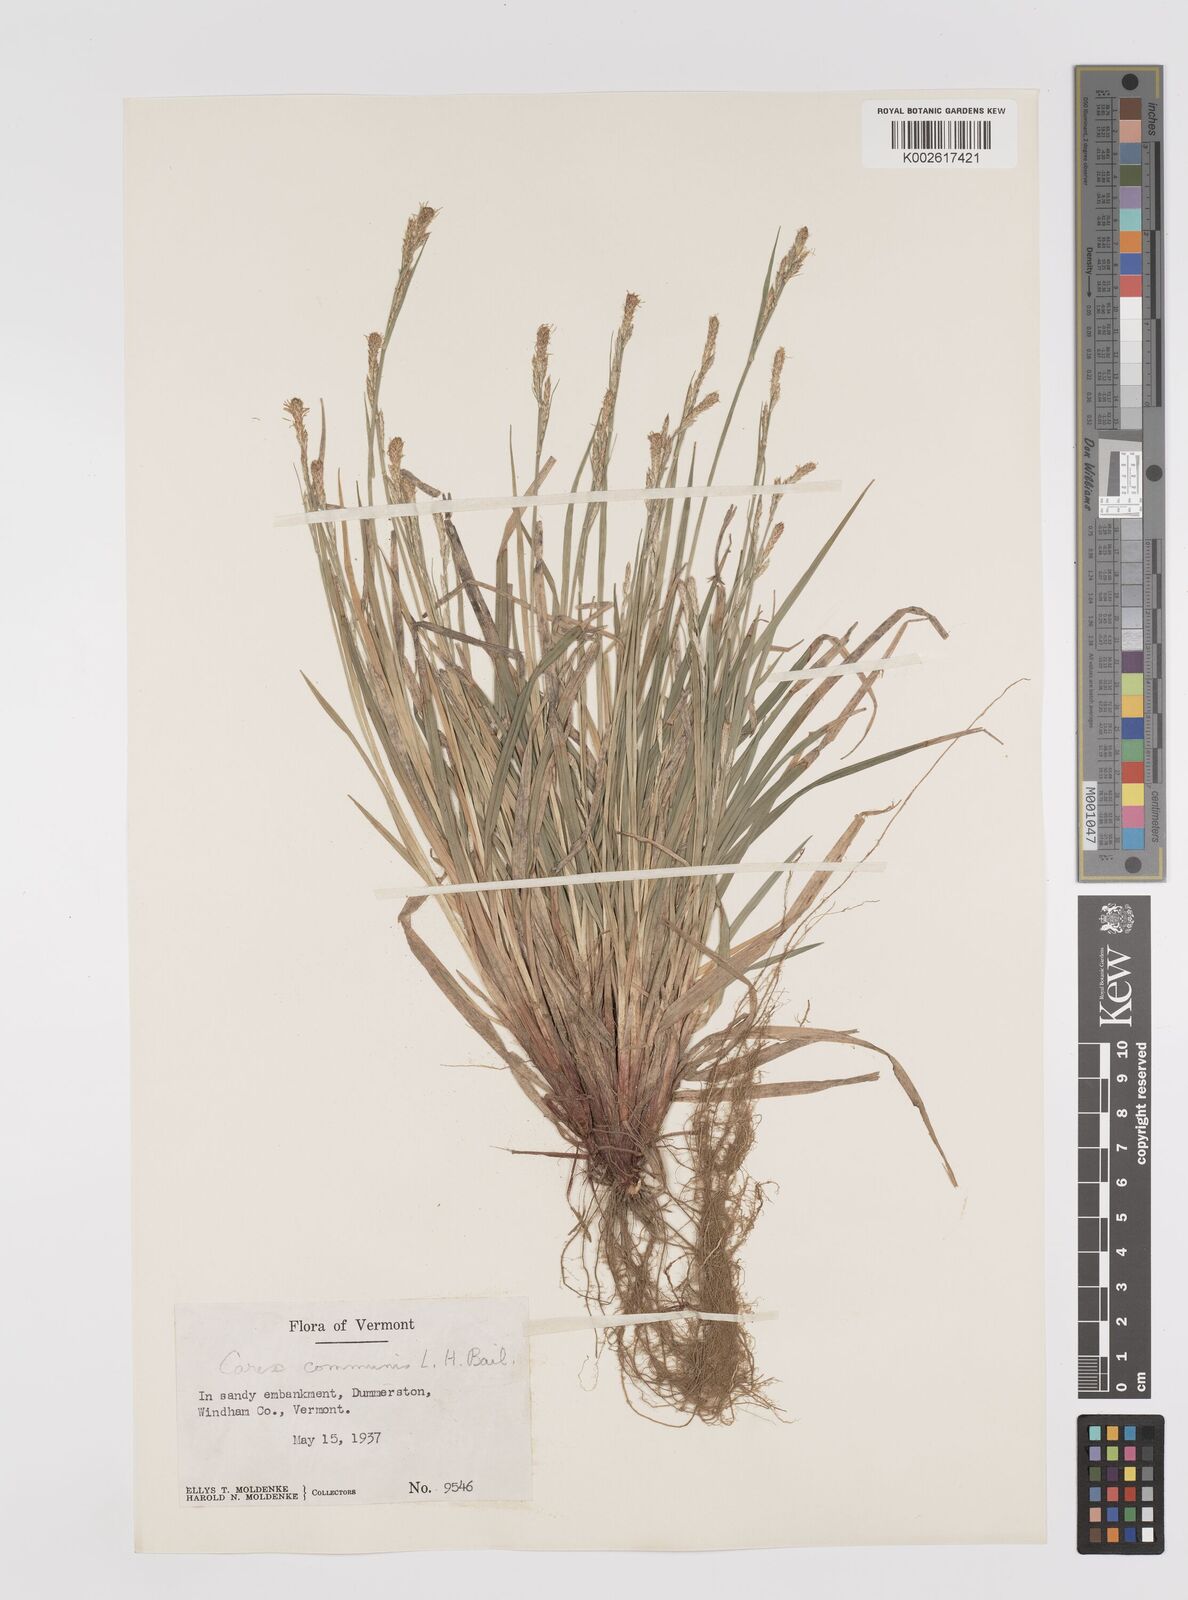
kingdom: Plantae
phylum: Tracheophyta
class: Liliopsida
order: Poales
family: Cyperaceae
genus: Carex
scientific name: Carex communis
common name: Colonial oak sedge
